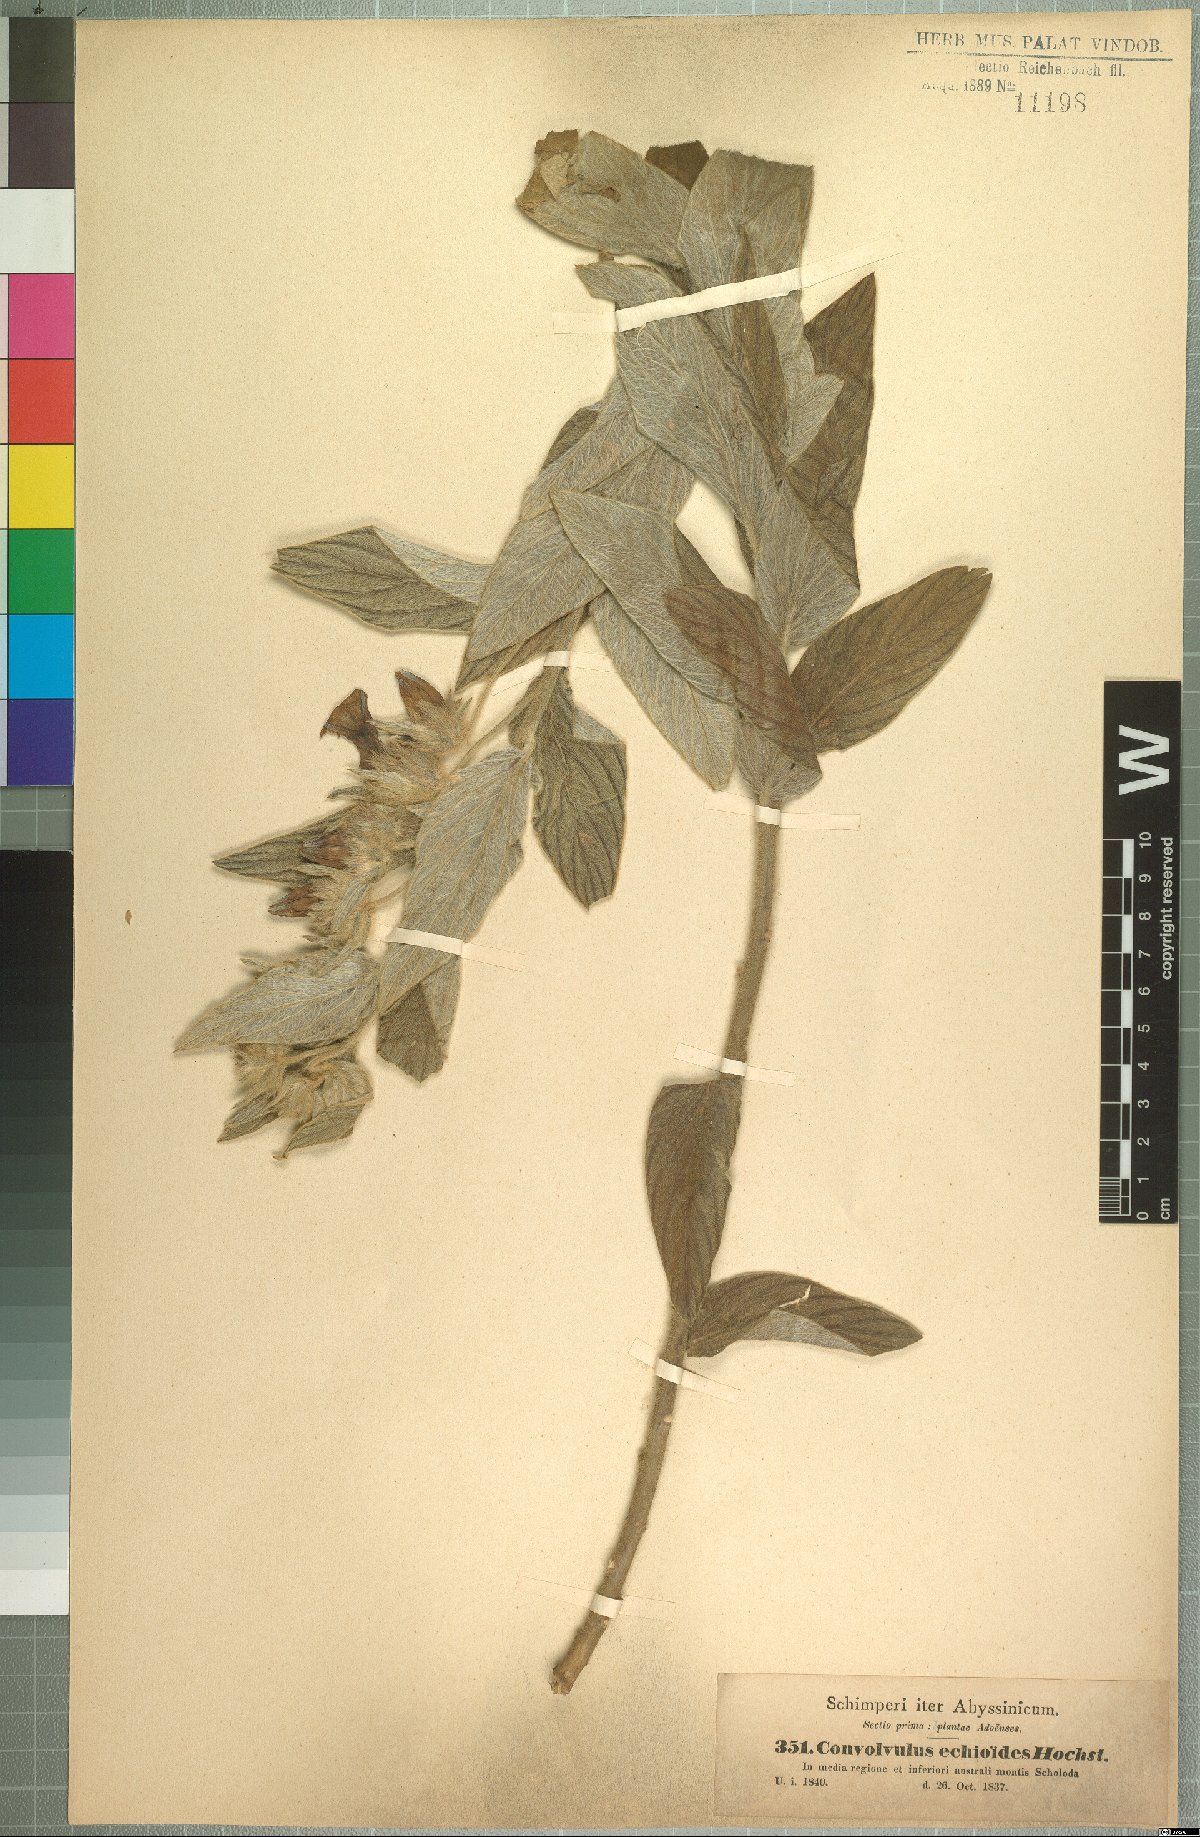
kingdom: Plantae
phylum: Tracheophyta
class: Magnoliopsida
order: Solanales
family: Convolvulaceae
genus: Ipomoea
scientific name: Ipomoea abyssinica
